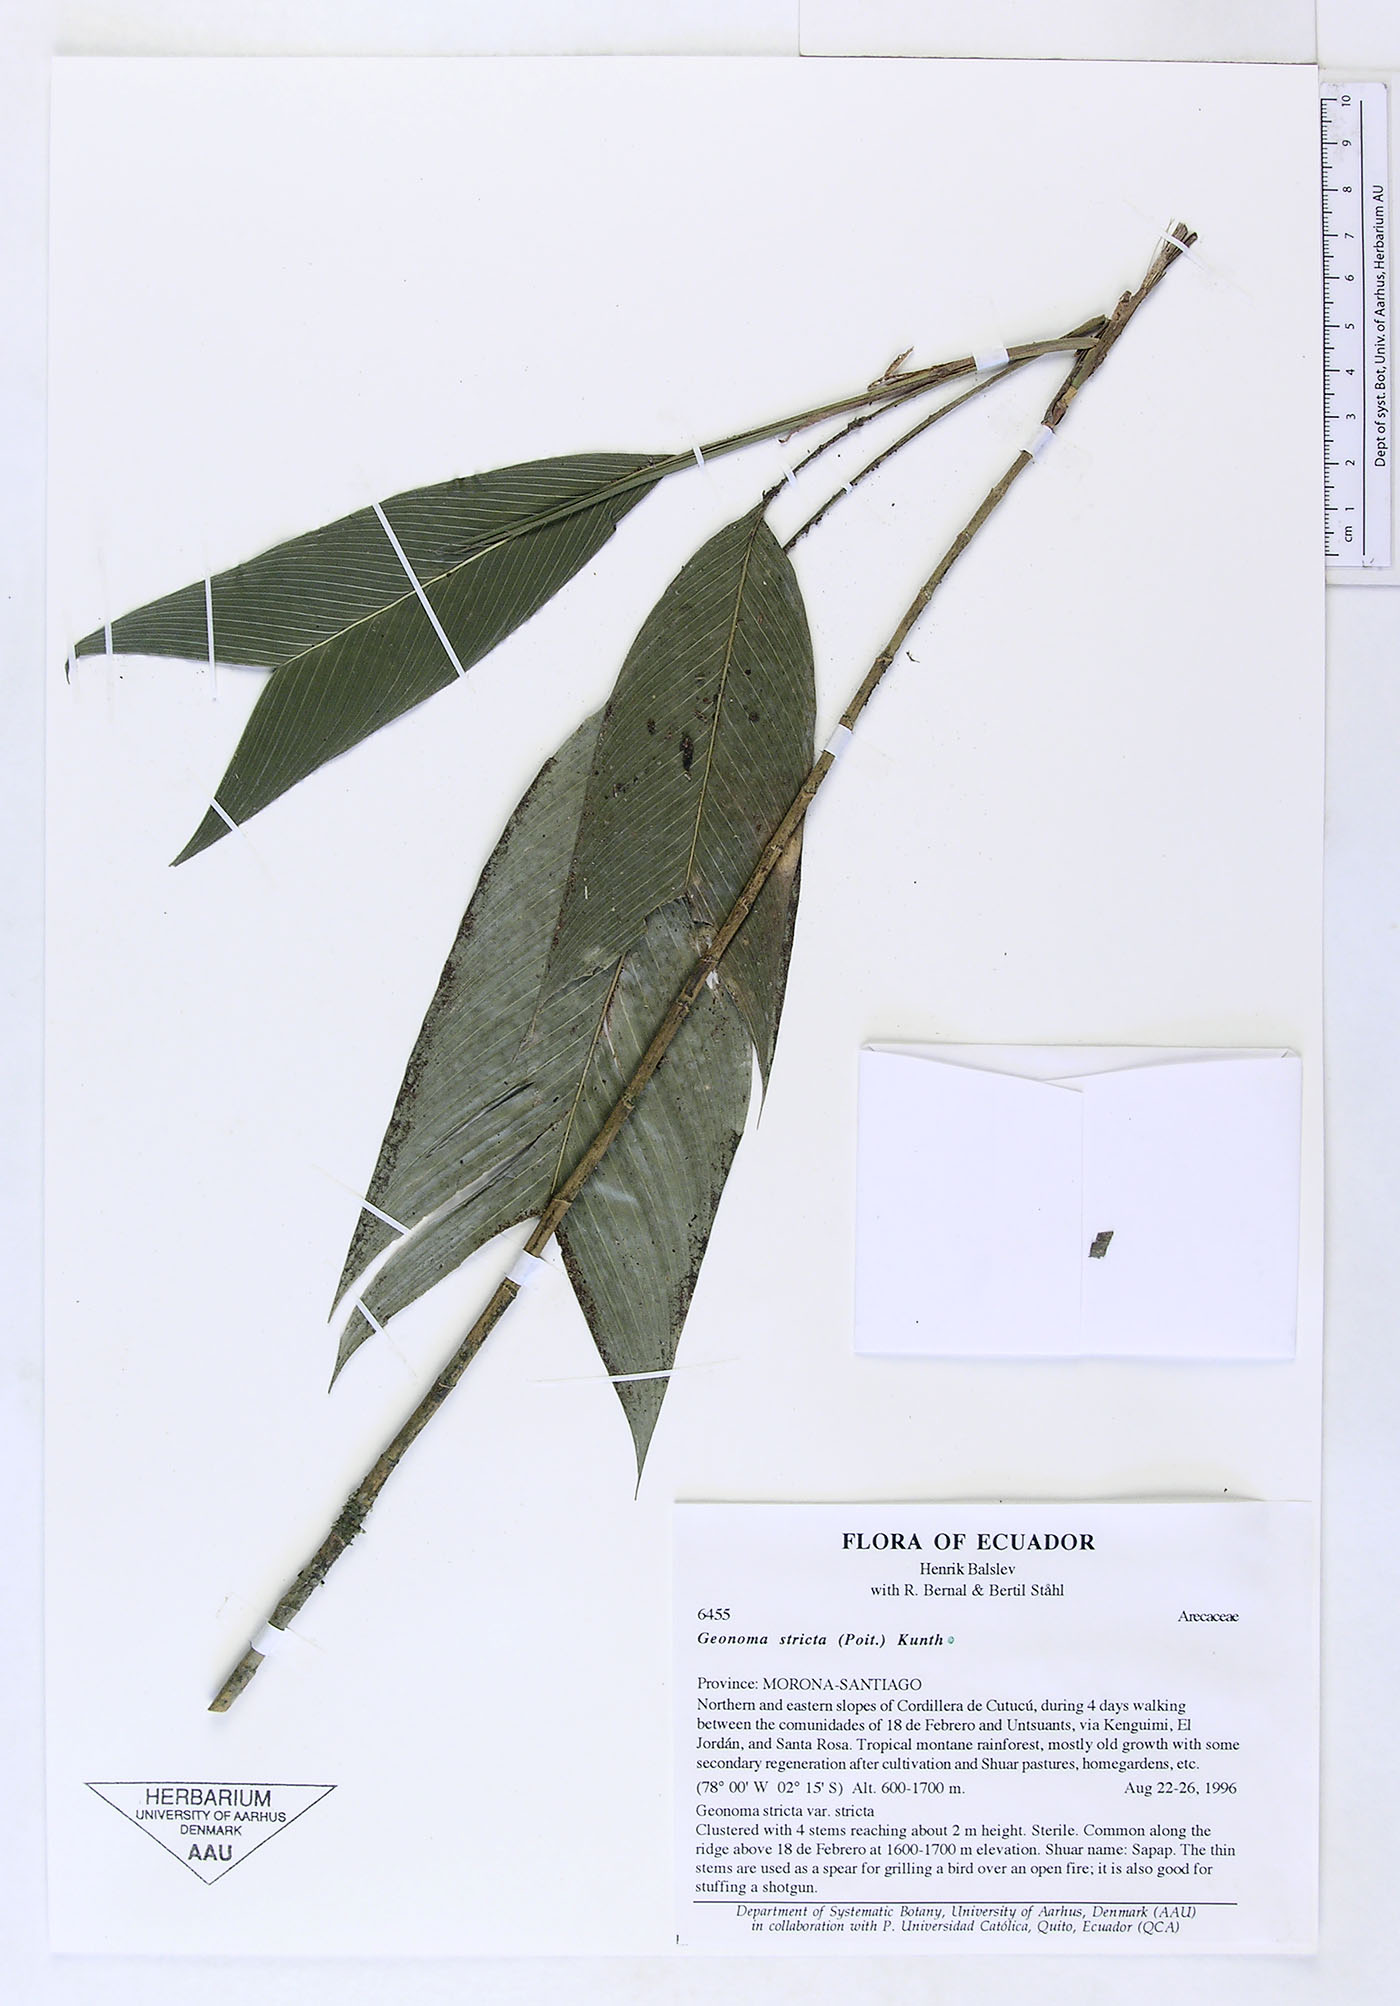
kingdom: Plantae
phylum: Tracheophyta
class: Liliopsida
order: Arecales
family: Arecaceae
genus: Geonoma
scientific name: Geonoma stricta
